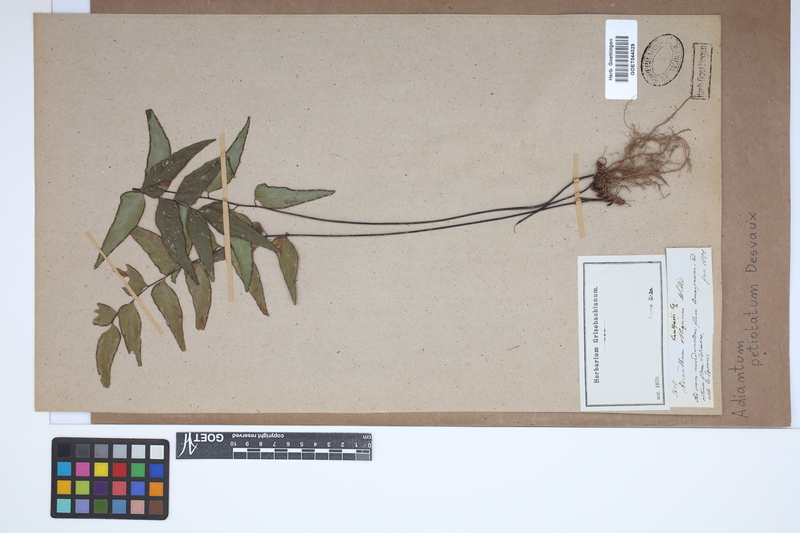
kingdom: Plantae
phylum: Tracheophyta
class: Polypodiopsida
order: Polypodiales
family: Pteridaceae
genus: Adiantum
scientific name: Adiantum petiolatum
